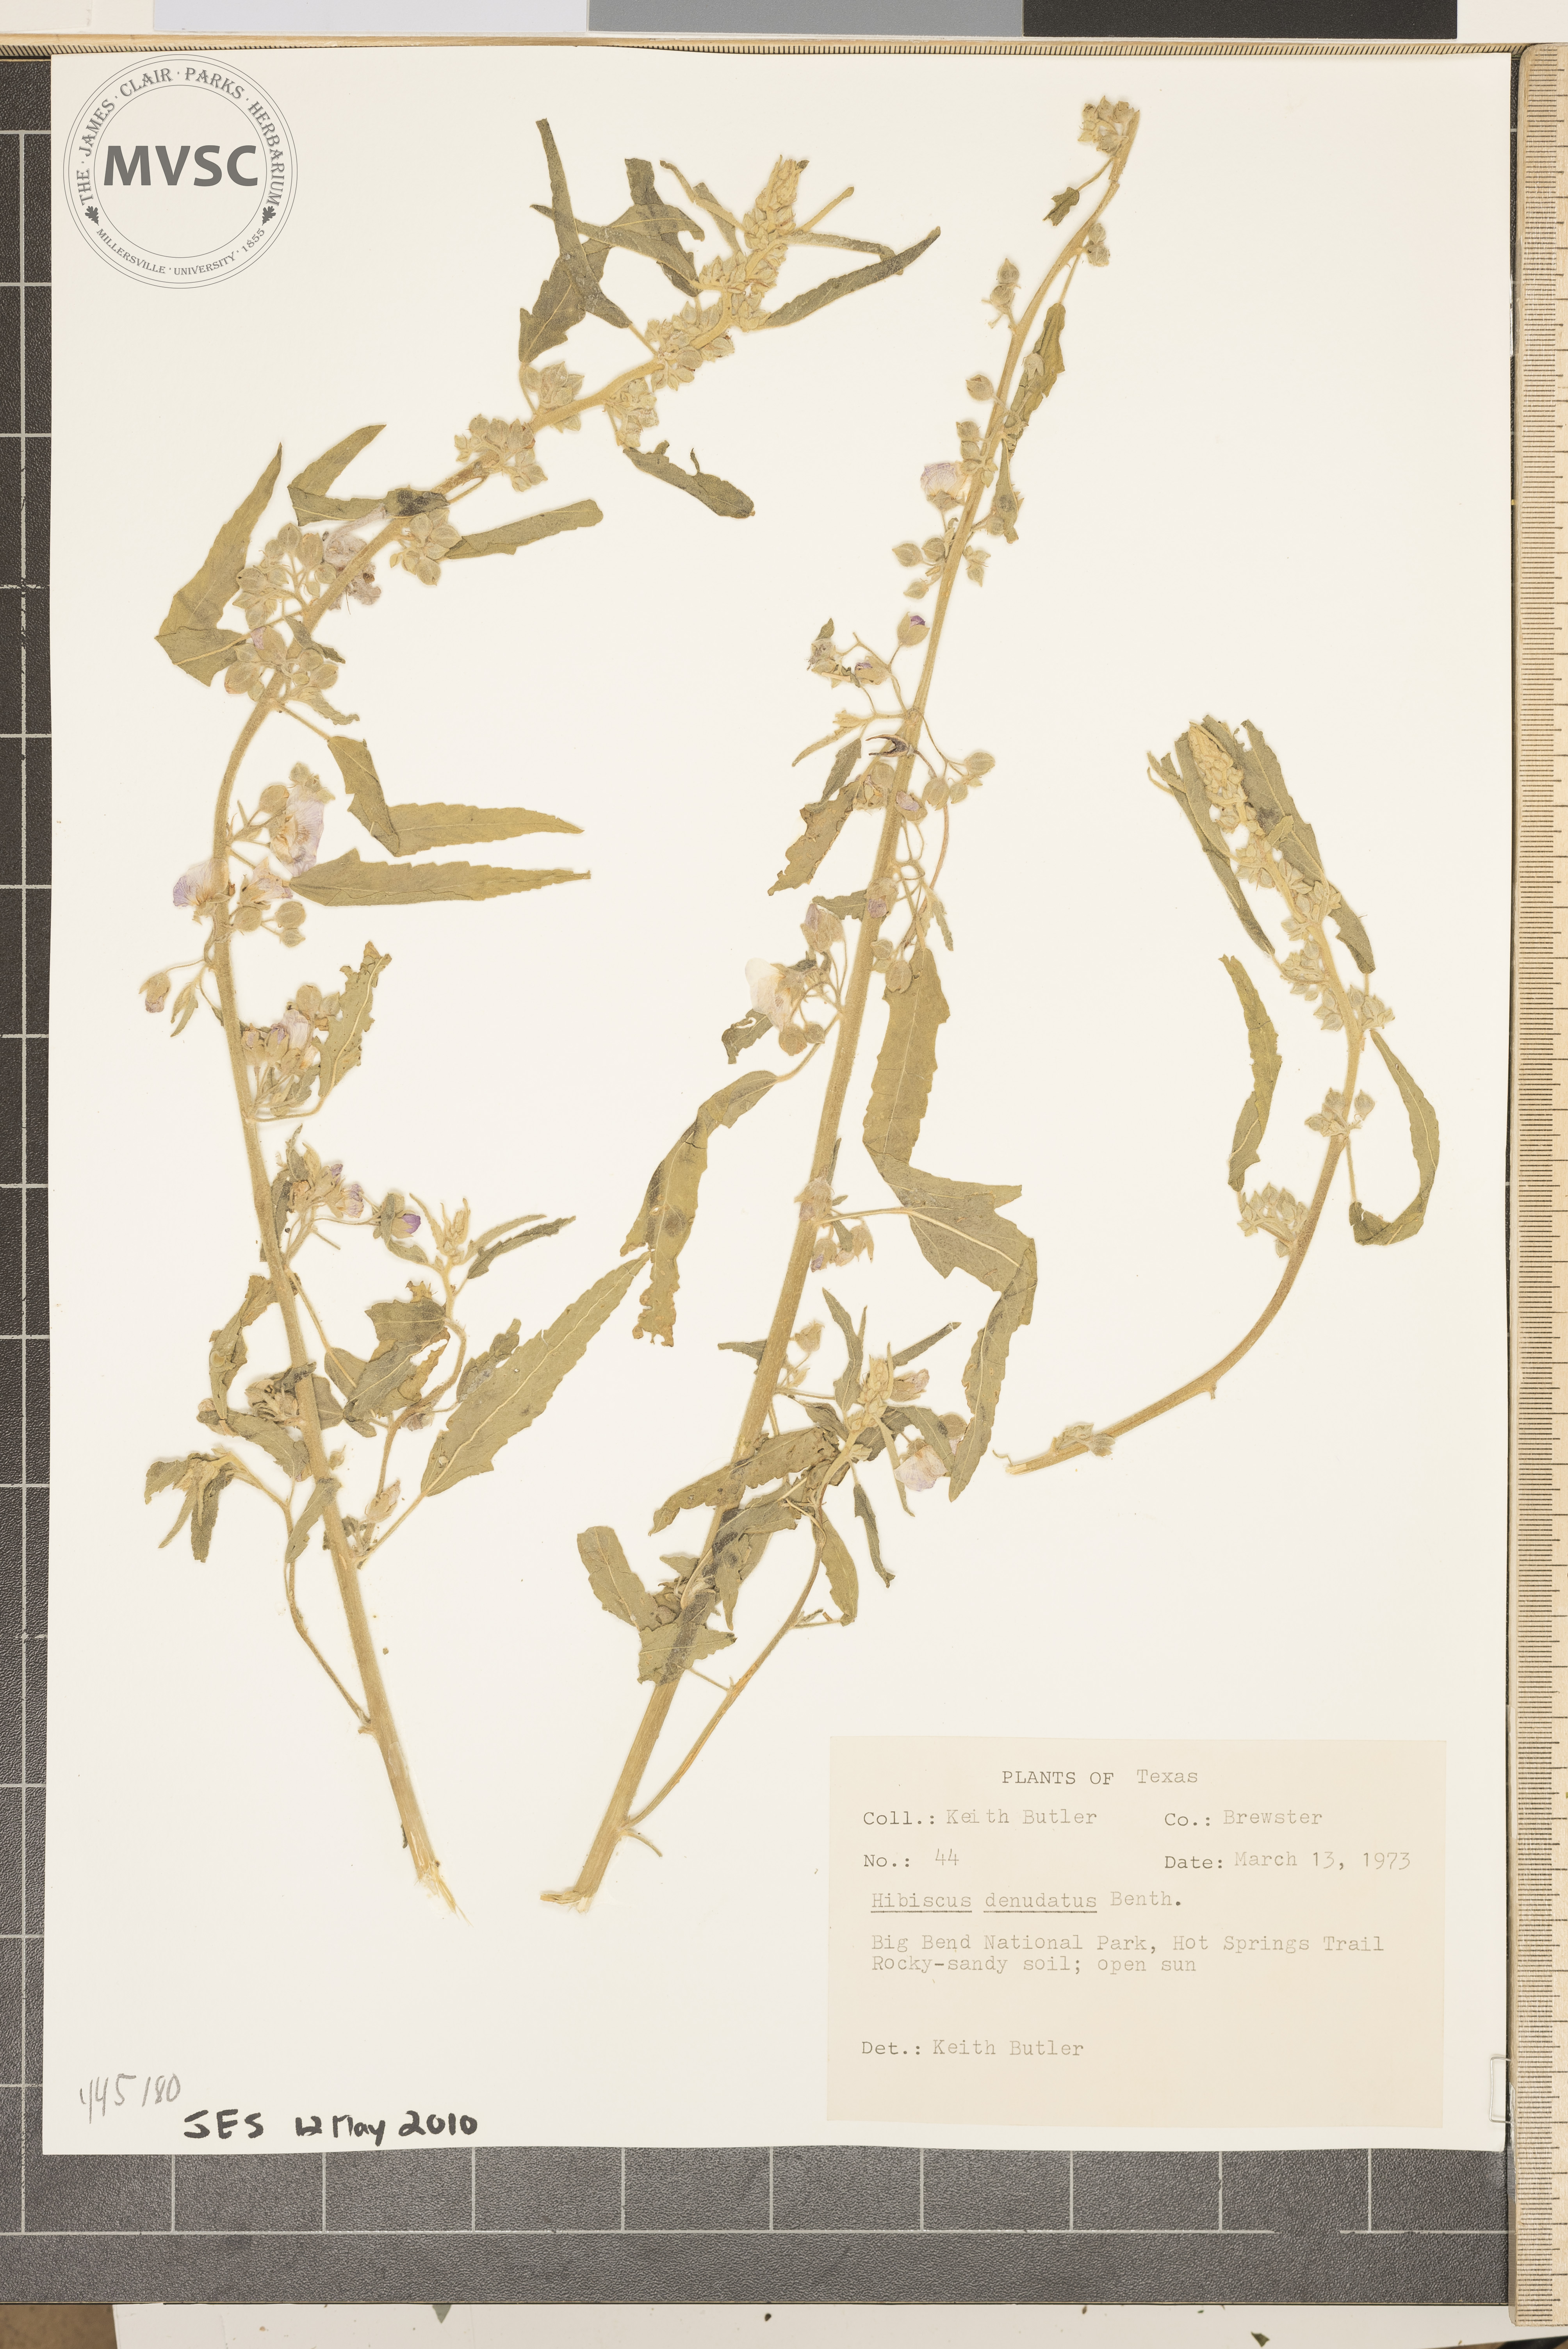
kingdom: Plantae
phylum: Tracheophyta
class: Magnoliopsida
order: Malvales
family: Malvaceae
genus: Hibiscus
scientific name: Hibiscus denudatus
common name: Paleface
